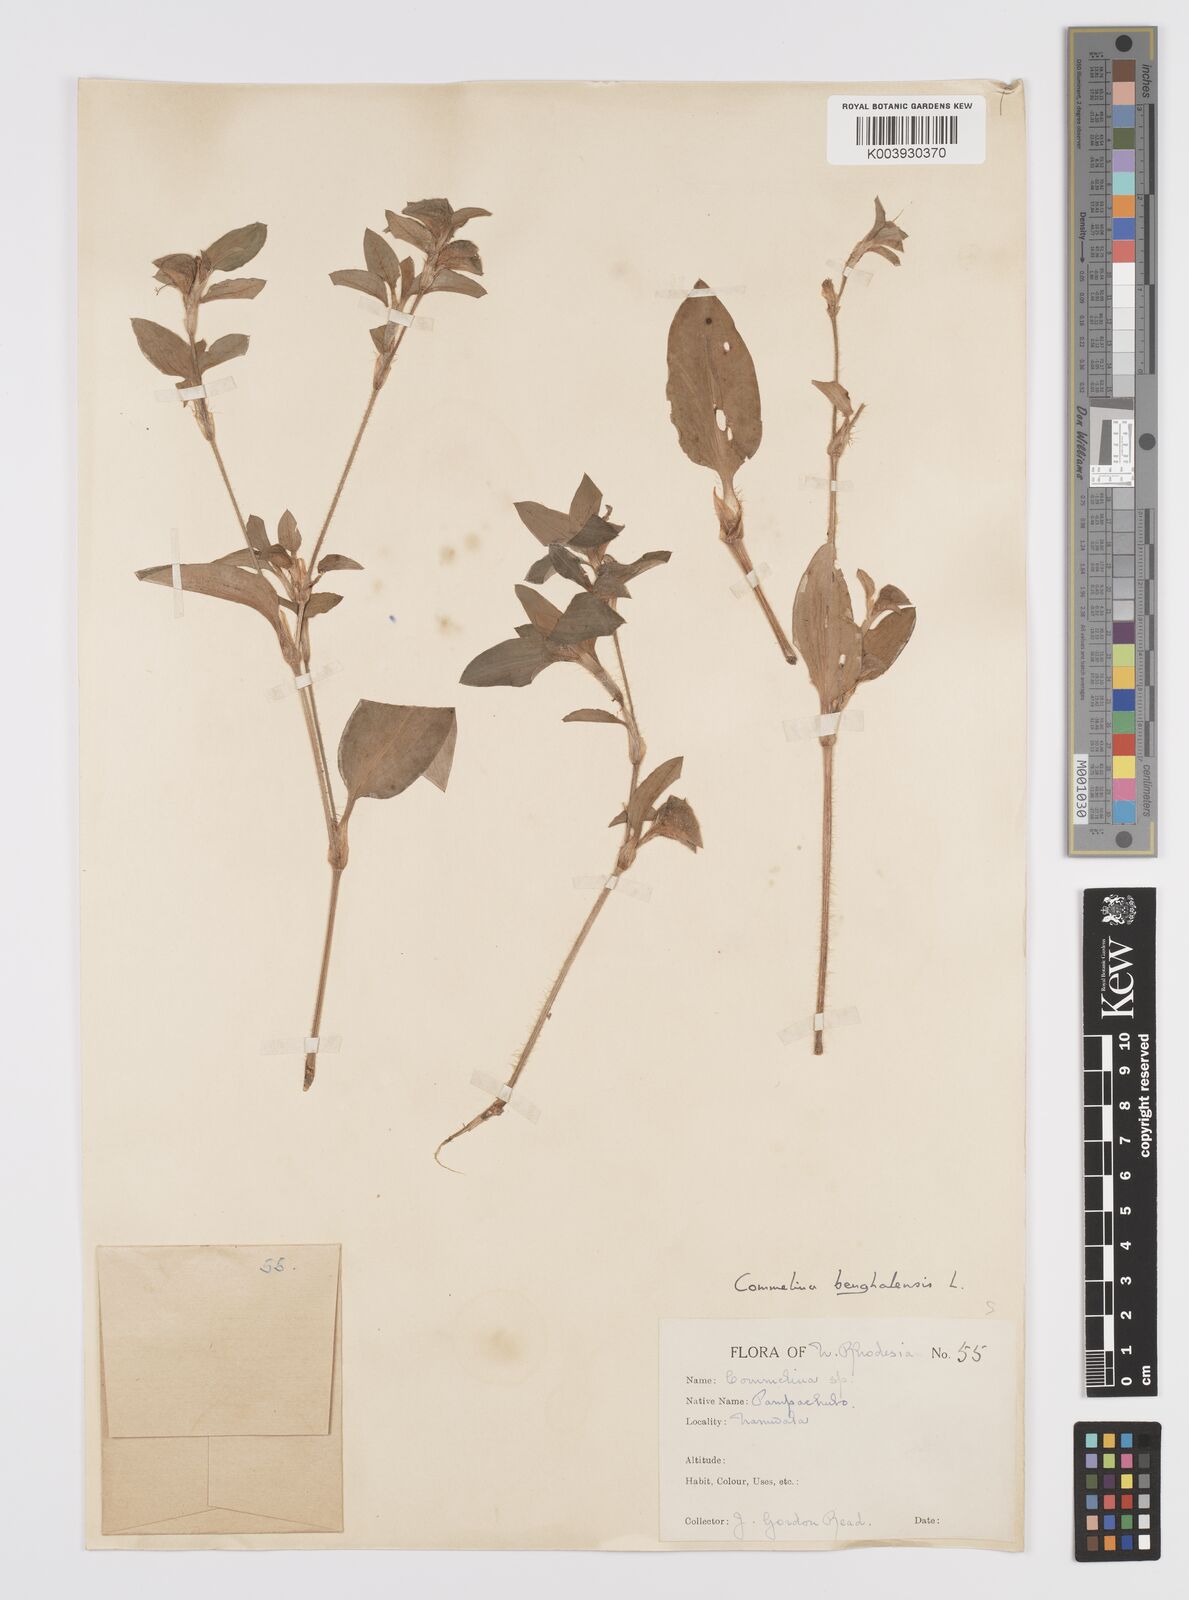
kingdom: Plantae
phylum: Tracheophyta
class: Liliopsida
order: Commelinales
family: Commelinaceae
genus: Commelina
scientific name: Commelina benghalensis
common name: Jio
